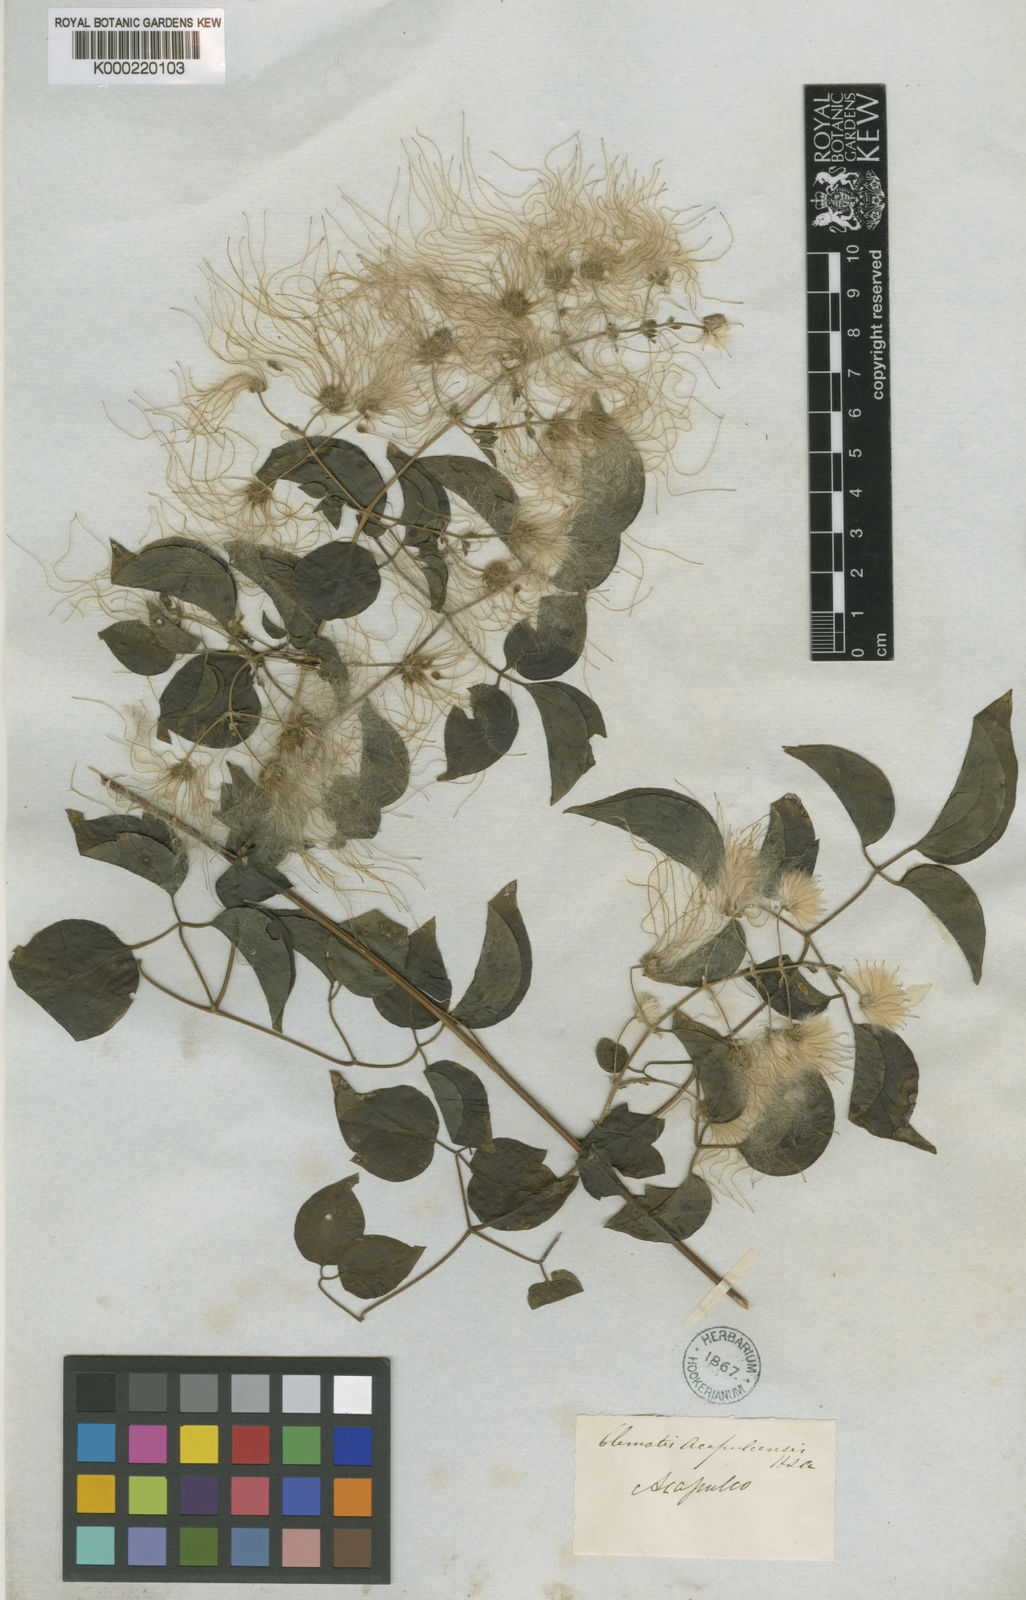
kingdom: Plantae
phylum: Tracheophyta
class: Magnoliopsida
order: Ranunculales
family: Ranunculaceae
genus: Clematis
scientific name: Clematis acapulcensis
